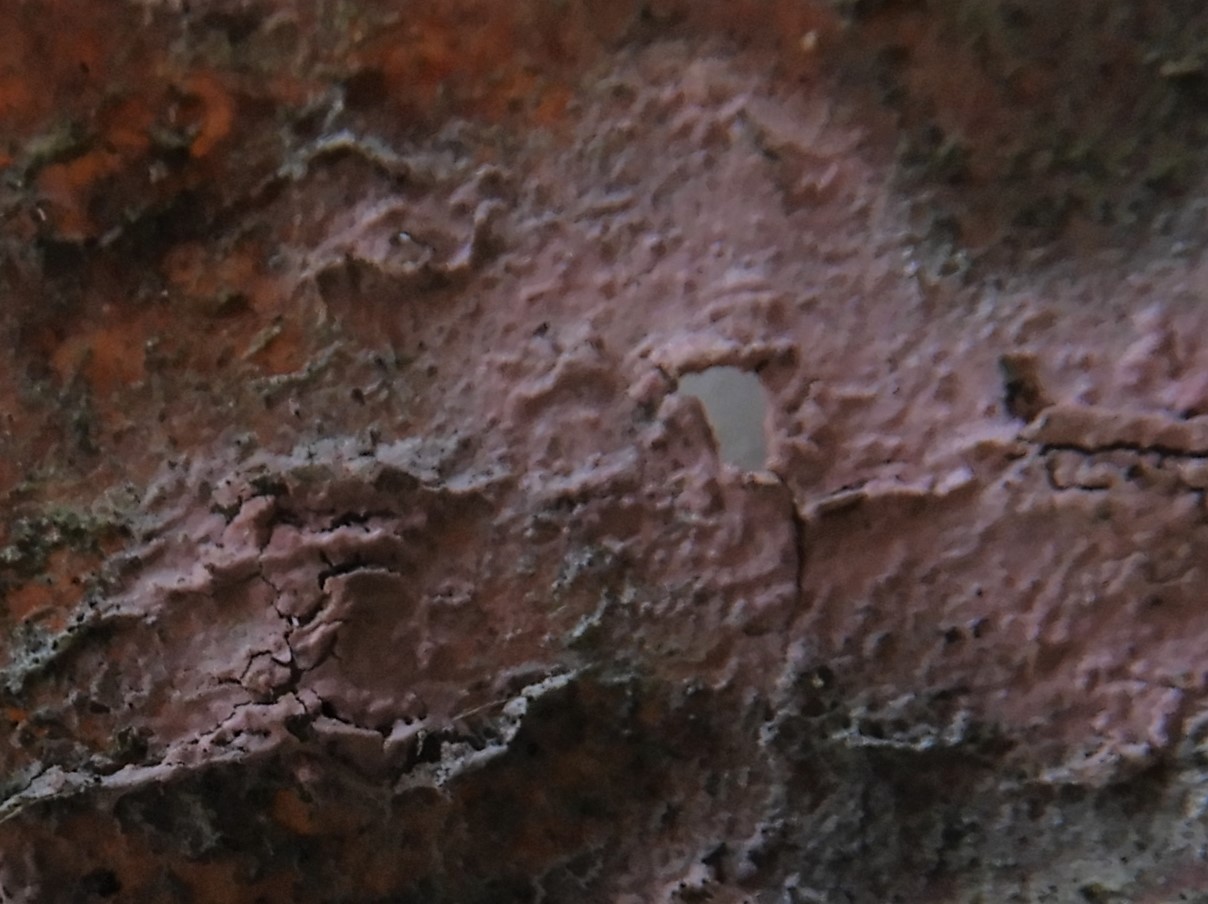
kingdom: Fungi
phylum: Basidiomycota
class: Agaricomycetes
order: Cantharellales
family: Tulasnellaceae
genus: Tulasnella
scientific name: Tulasnella violea
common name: violet ballonhinde
